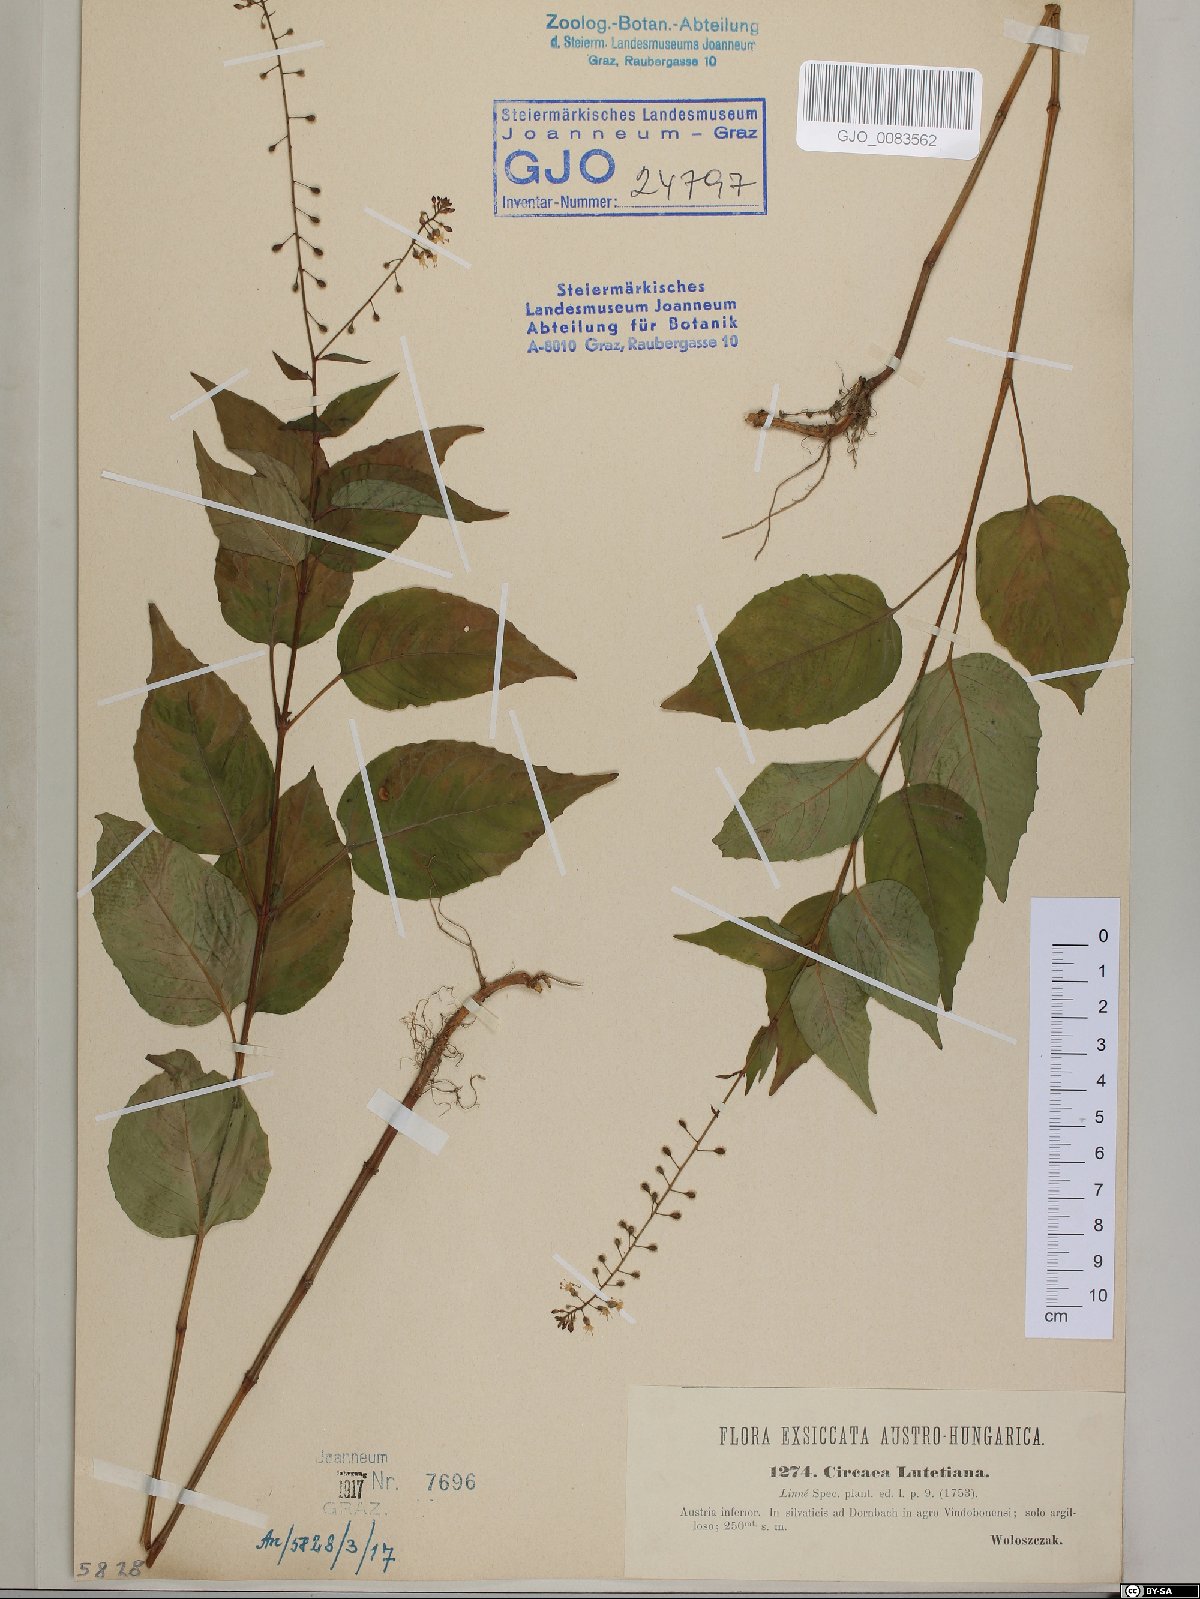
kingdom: Plantae
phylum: Tracheophyta
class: Magnoliopsida
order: Myrtales
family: Onagraceae
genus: Circaea
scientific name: Circaea lutetiana
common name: Enchanter's-nightshade
